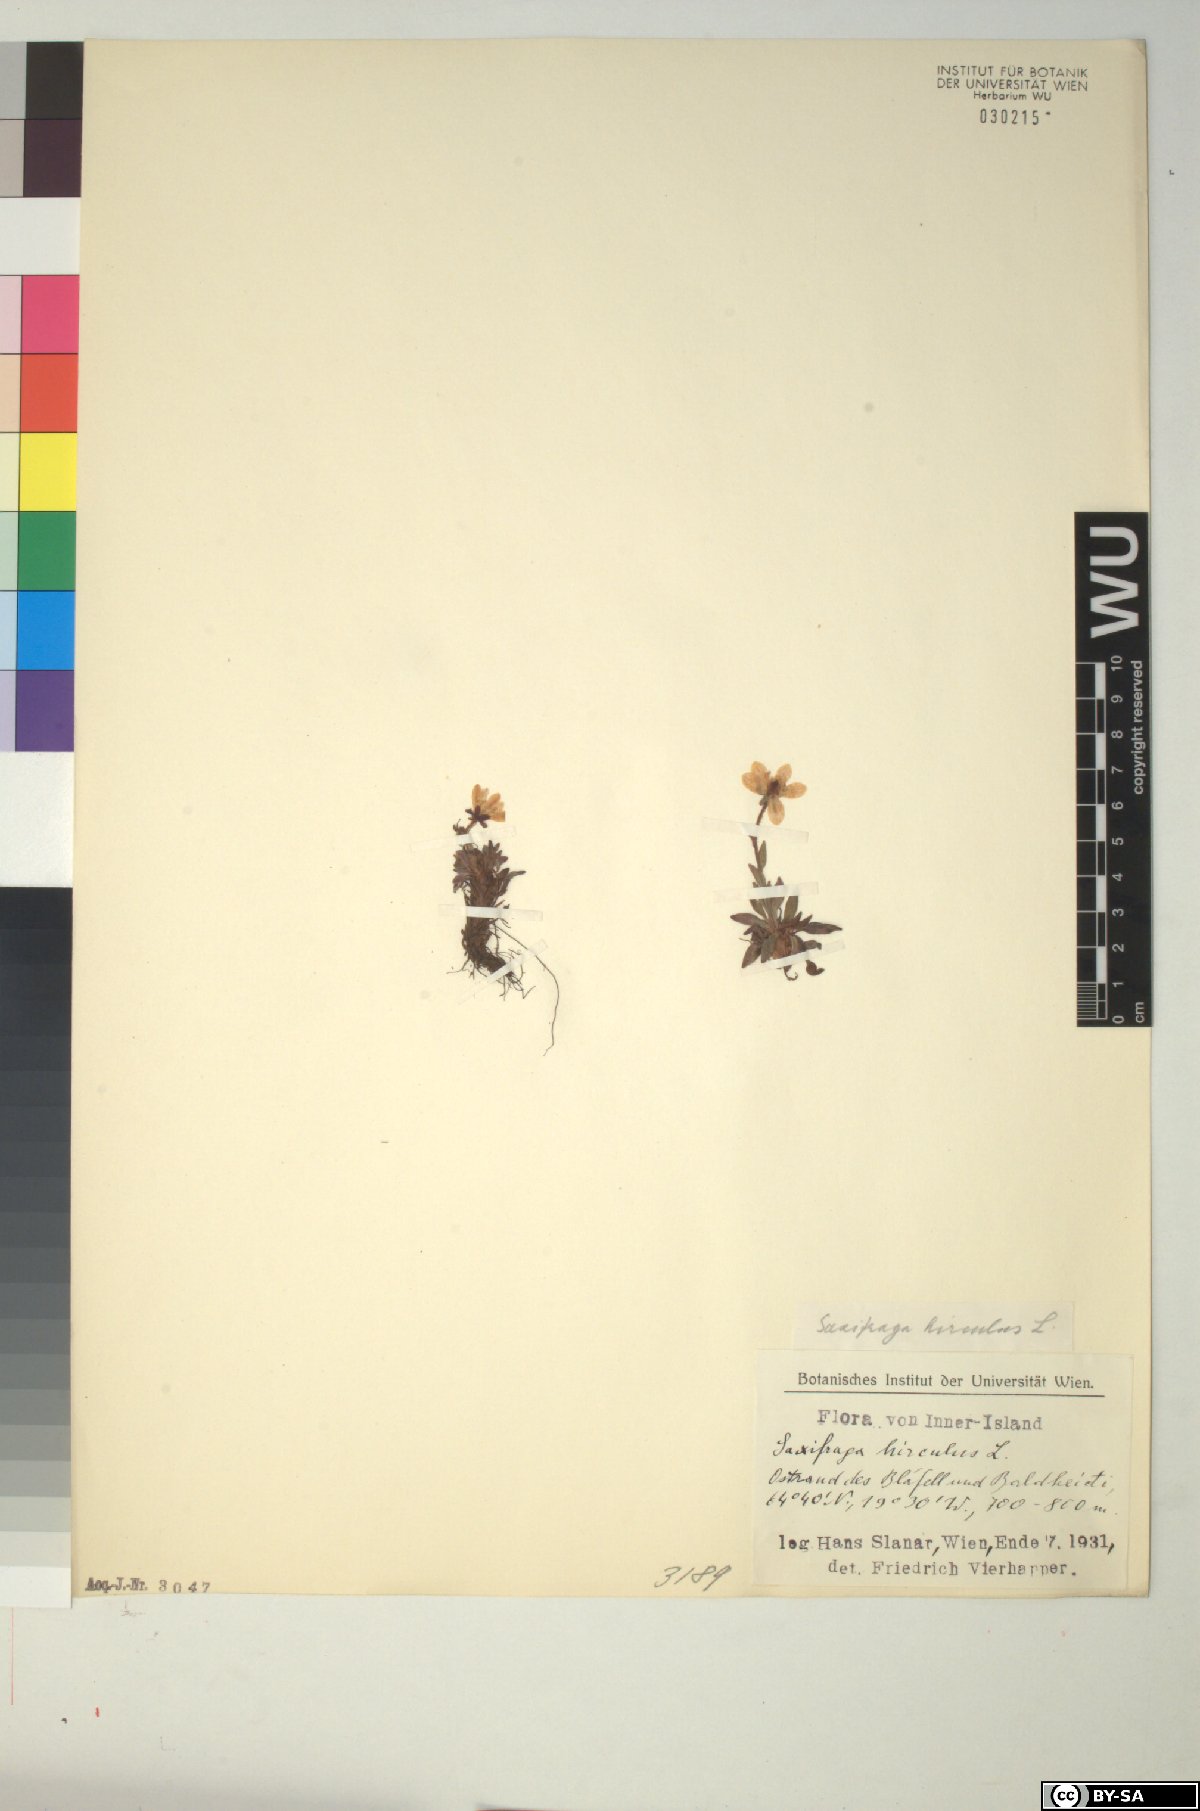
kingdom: Plantae
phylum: Tracheophyta
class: Magnoliopsida
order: Saxifragales
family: Saxifragaceae
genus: Saxifraga
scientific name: Saxifraga hirculus
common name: Yellow marsh saxifrage
